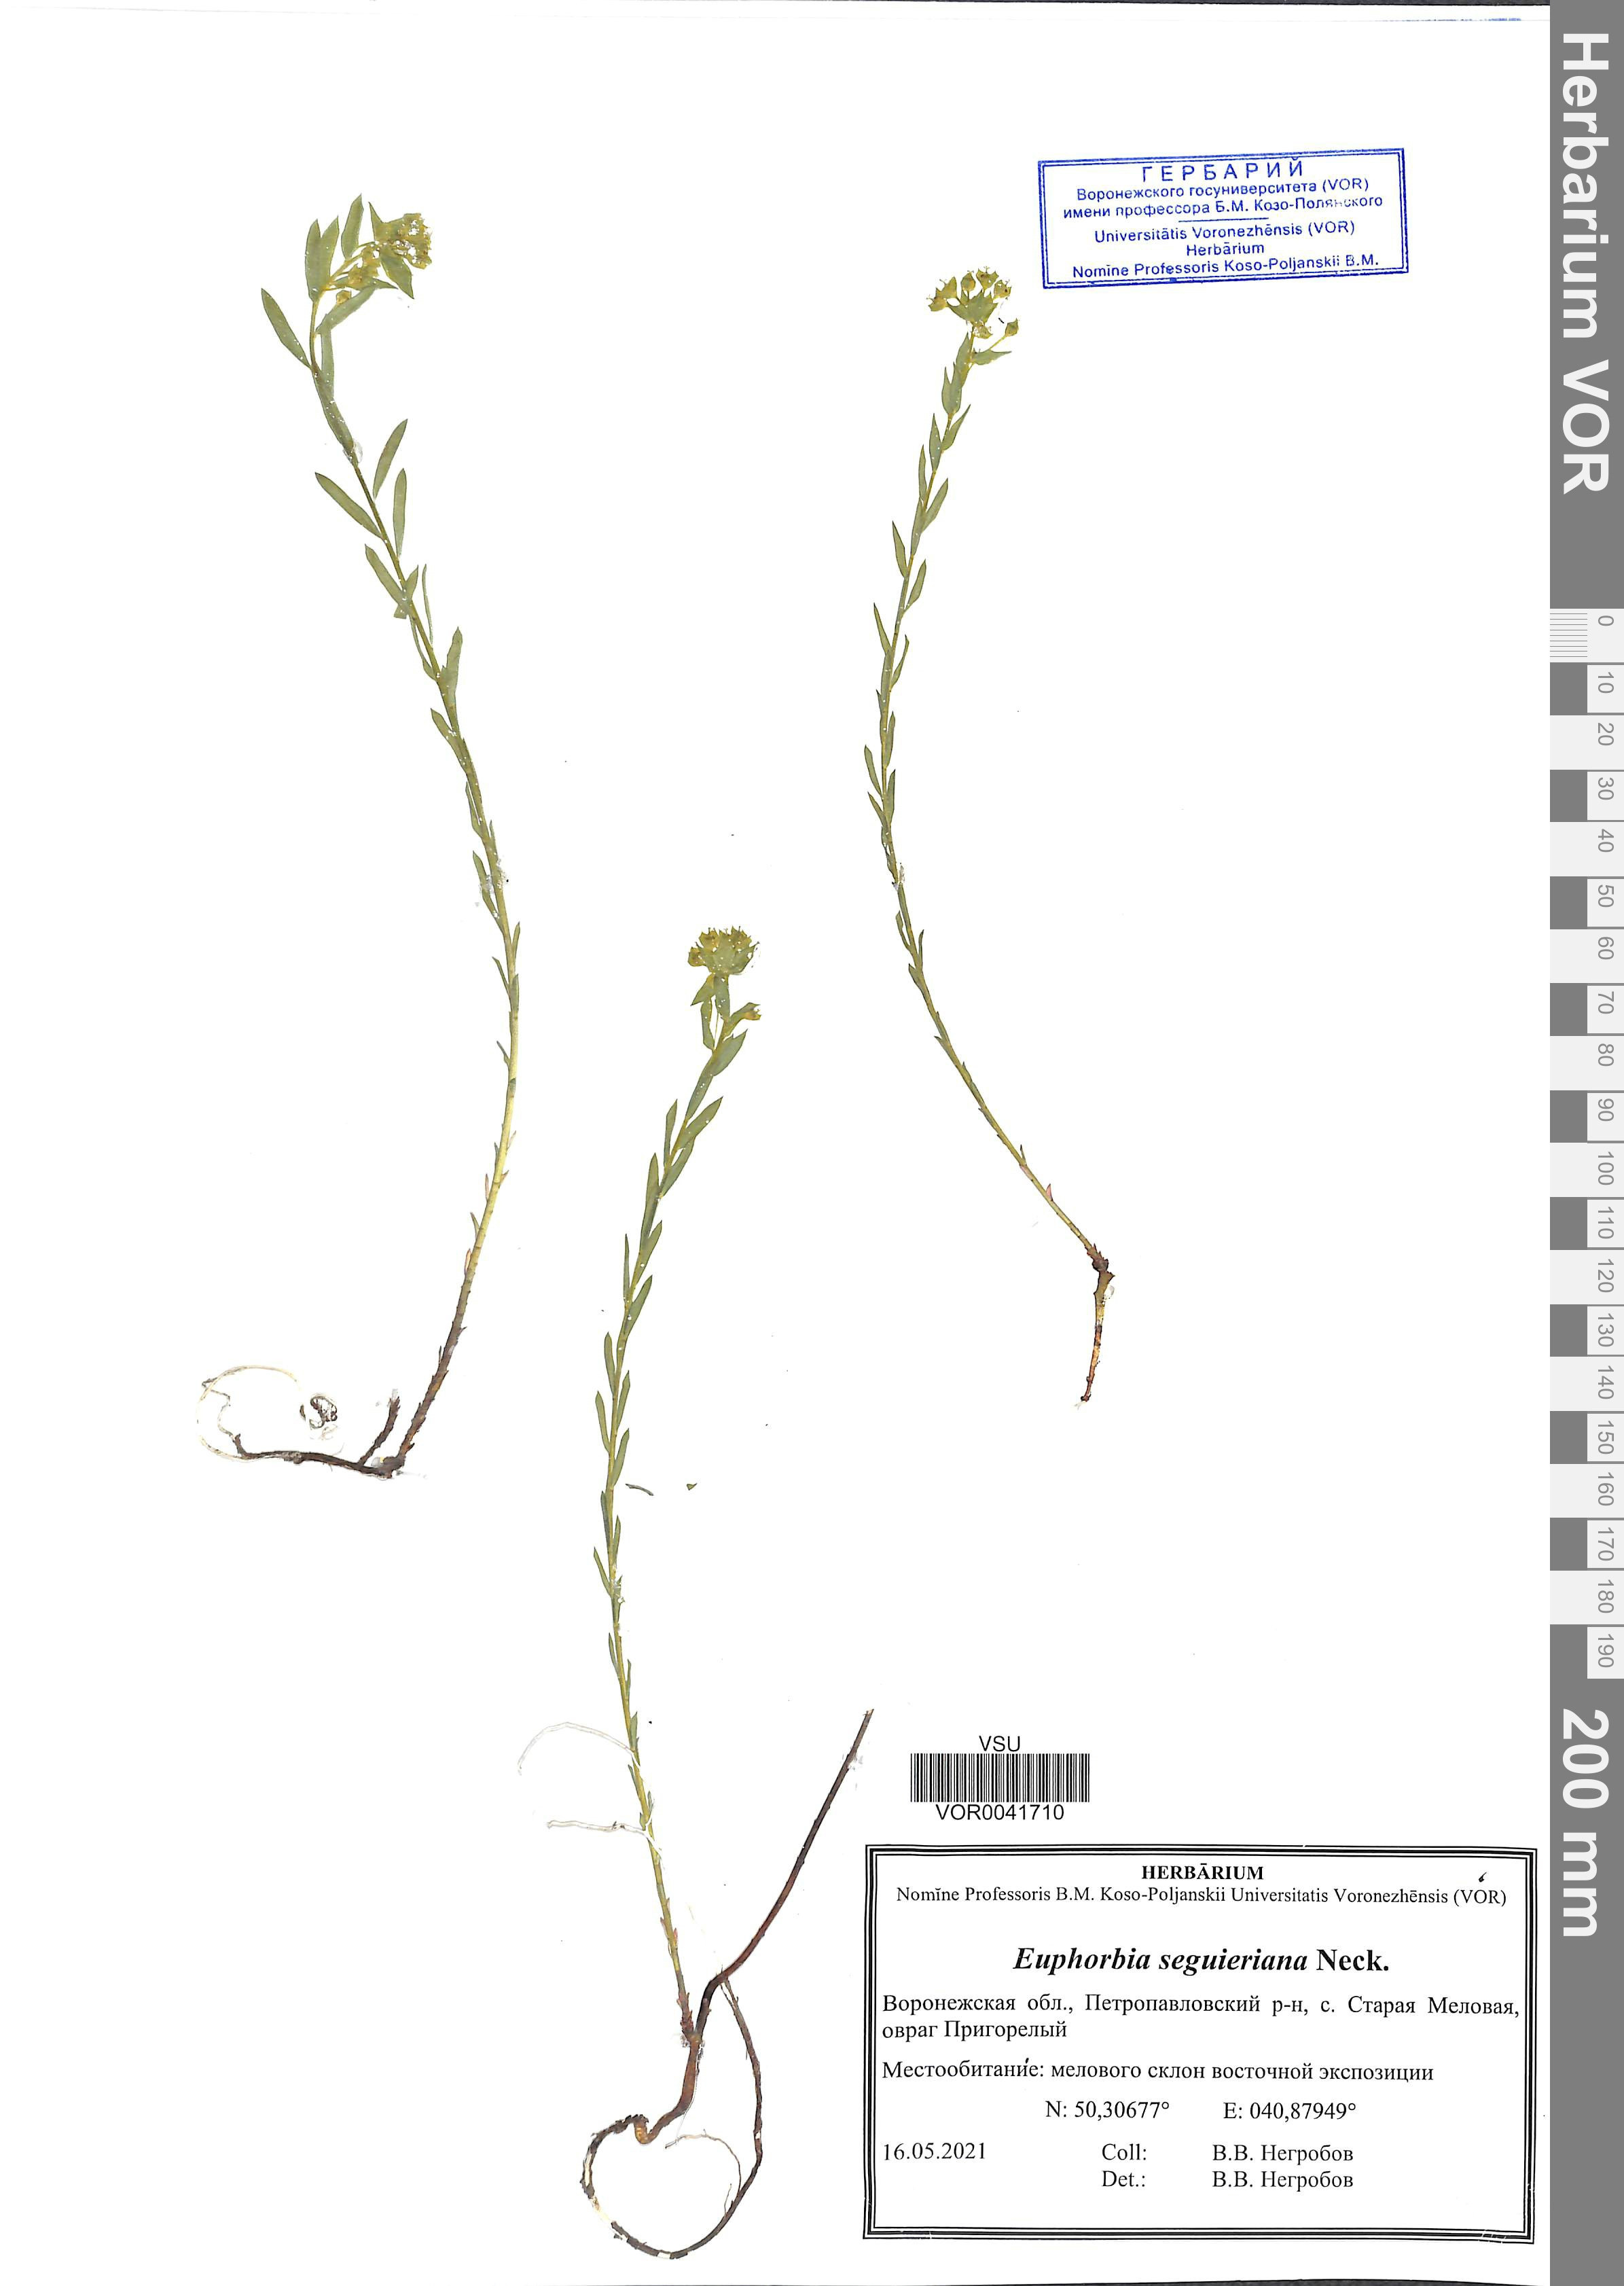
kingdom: Plantae
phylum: Tracheophyta
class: Magnoliopsida
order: Malpighiales
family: Euphorbiaceae
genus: Euphorbia
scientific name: Euphorbia seguieriana
